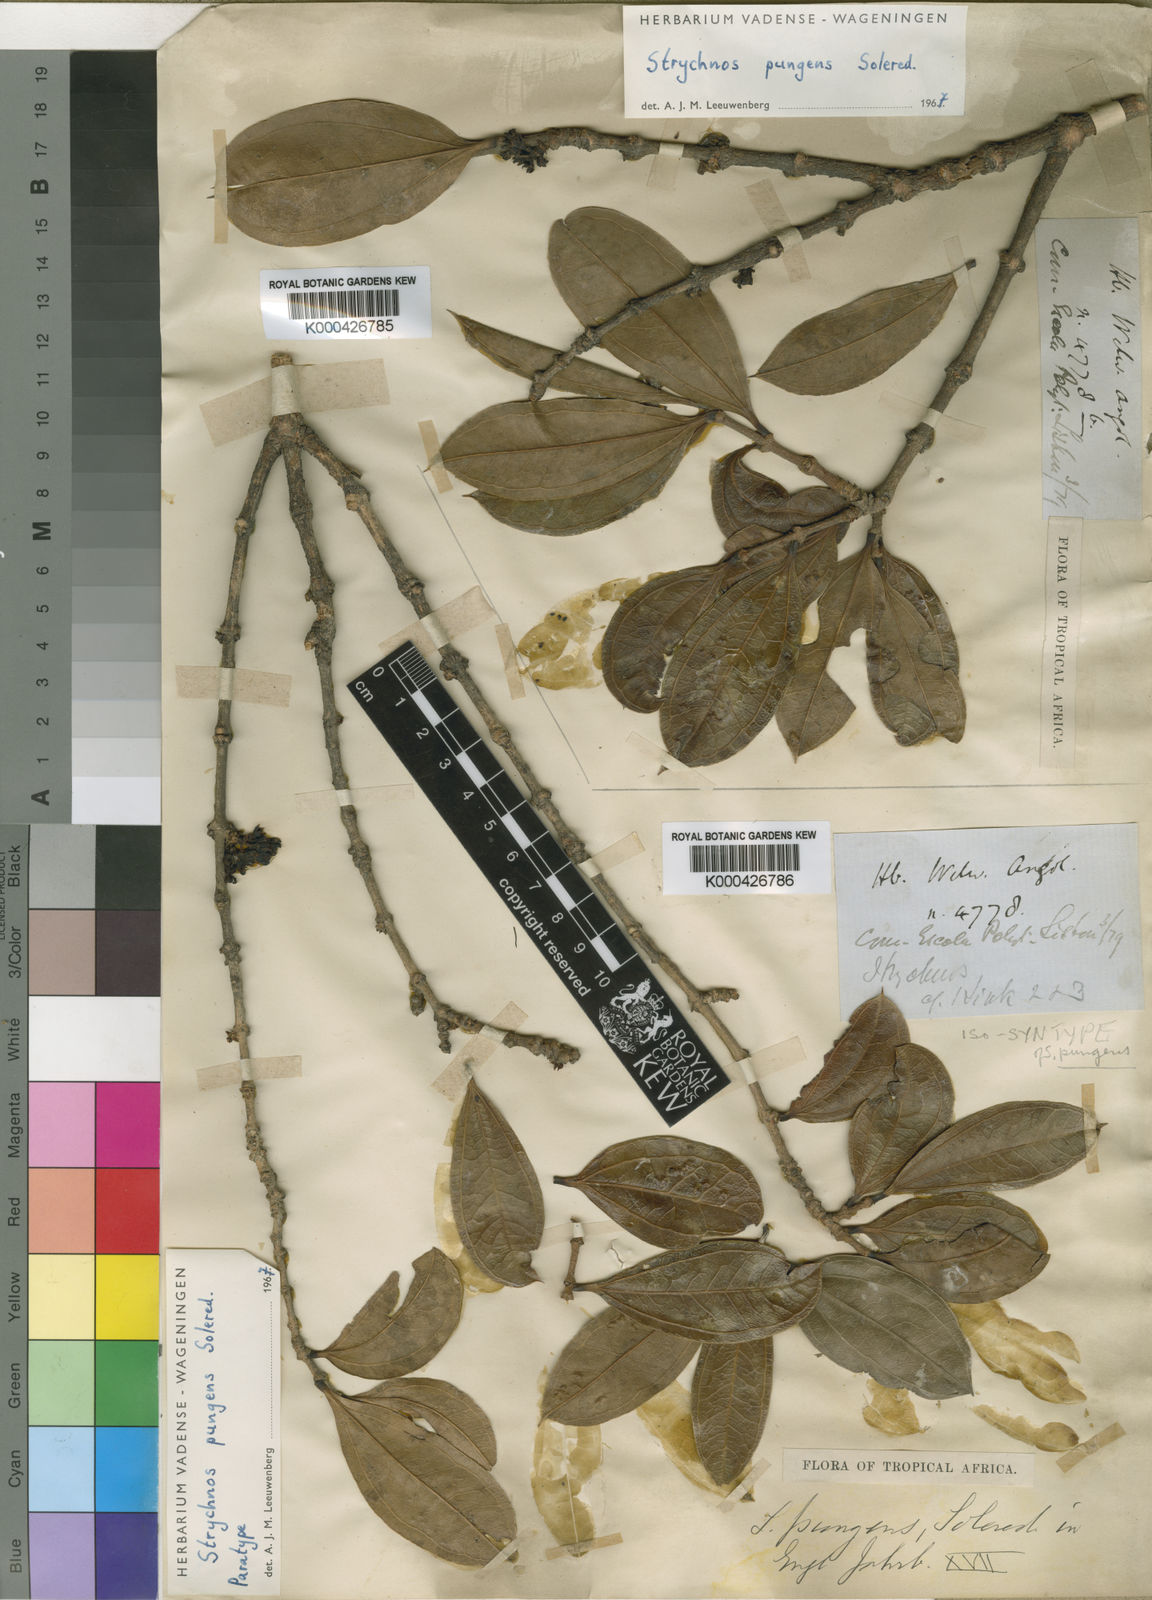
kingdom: Plantae
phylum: Tracheophyta
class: Magnoliopsida
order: Gentianales
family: Loganiaceae
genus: Strychnos
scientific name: Strychnos pungens
